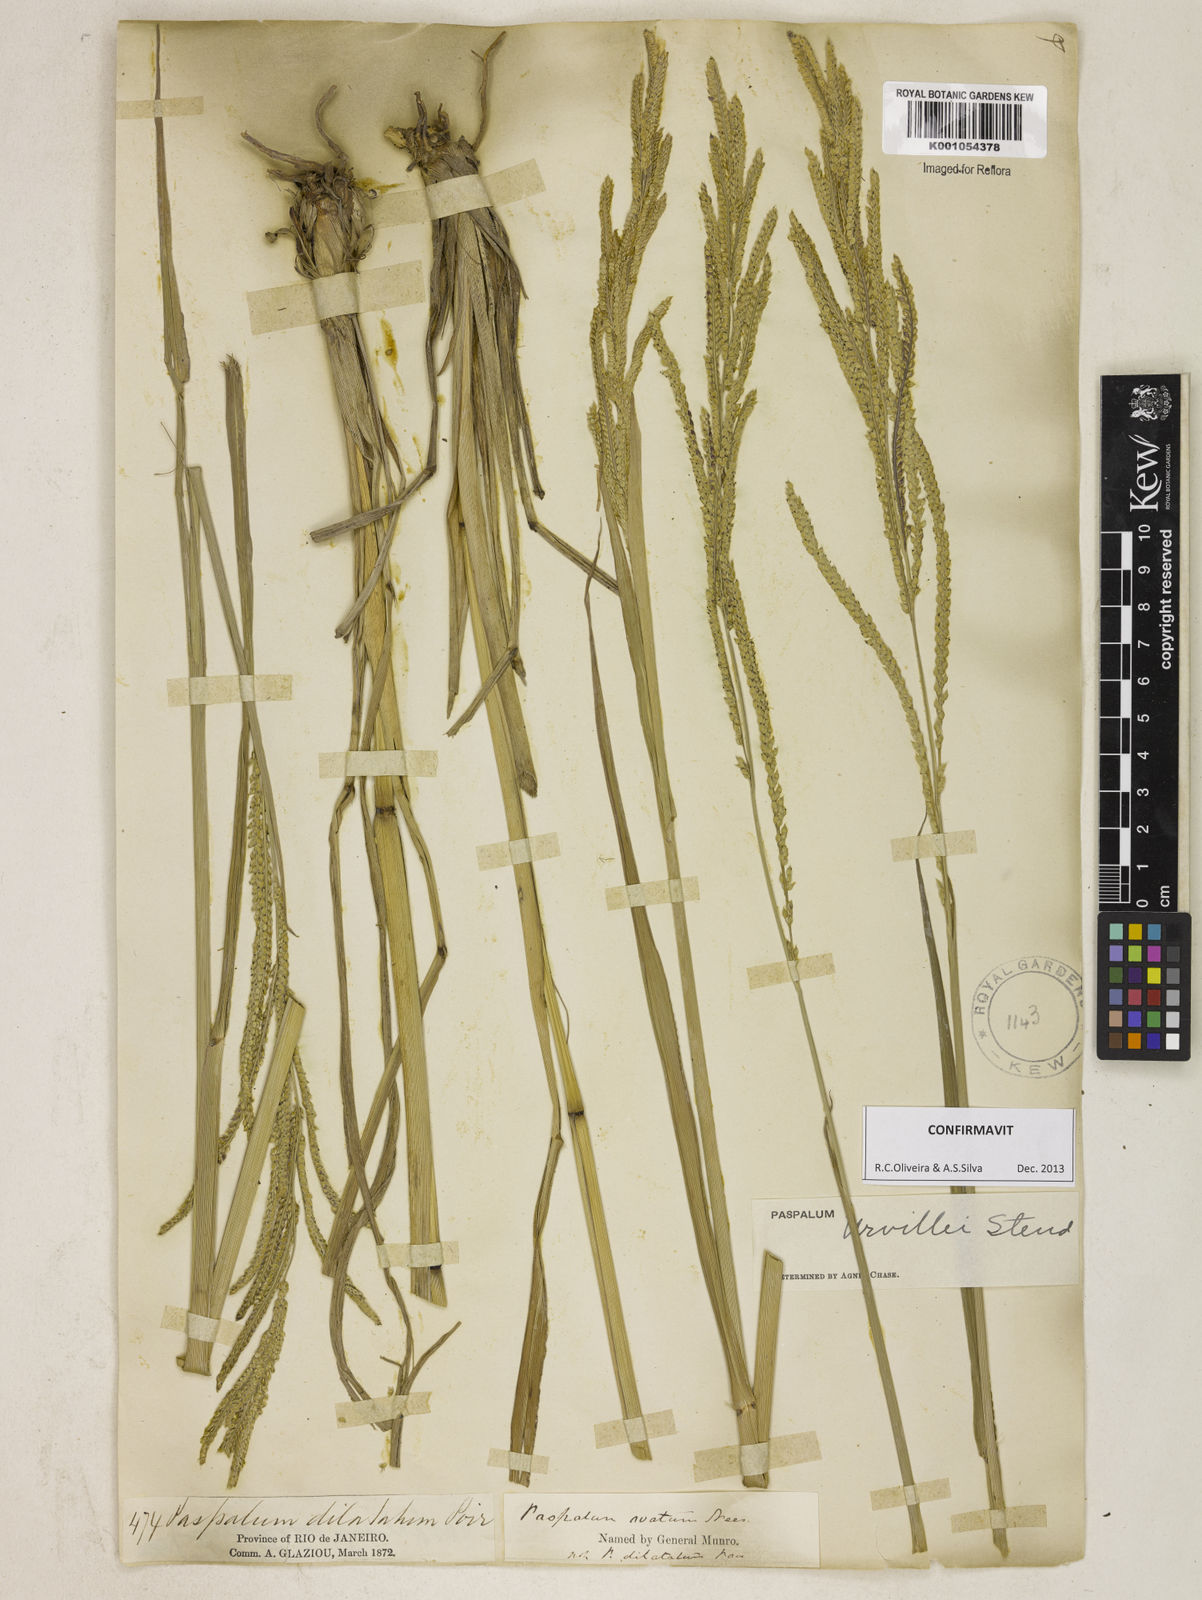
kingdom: Plantae
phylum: Tracheophyta
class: Liliopsida
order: Poales
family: Poaceae
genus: Paspalum
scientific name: Paspalum urvillei
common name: Vasey's grass
